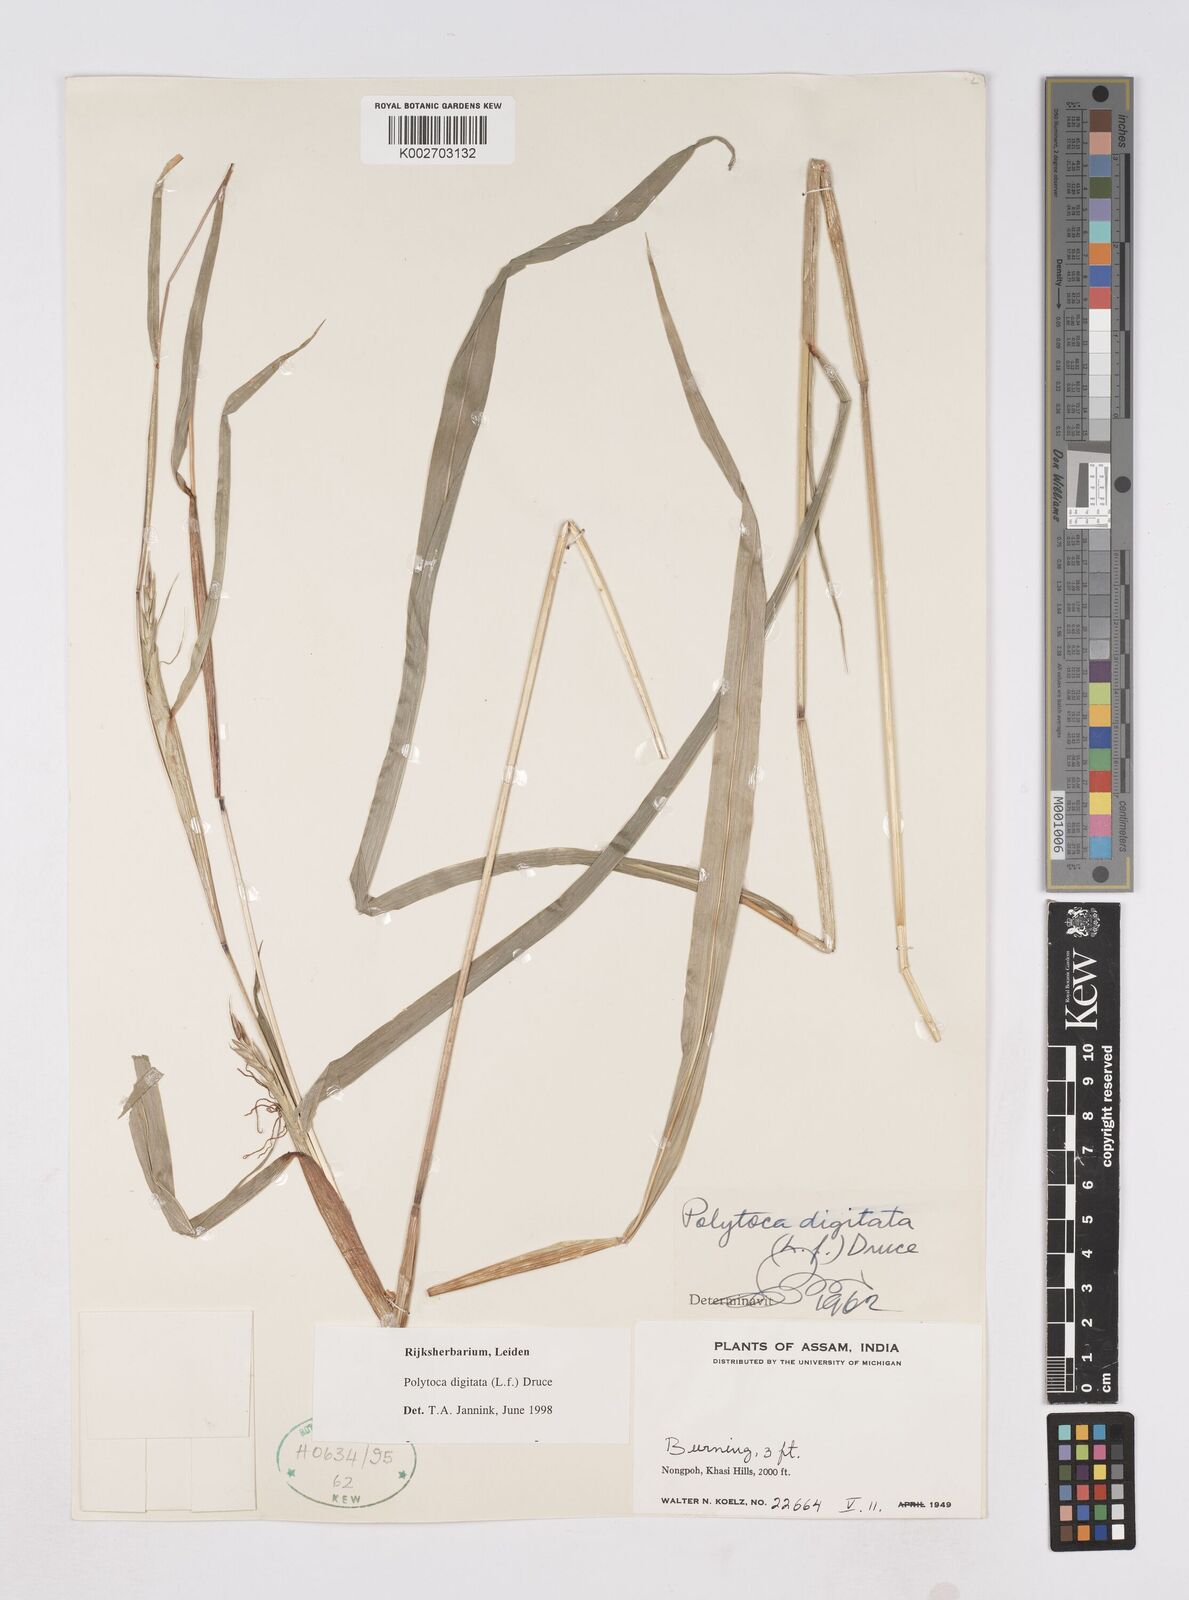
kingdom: Plantae
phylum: Tracheophyta
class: Liliopsida
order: Poales
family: Poaceae
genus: Polytoca
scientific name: Polytoca digitata
